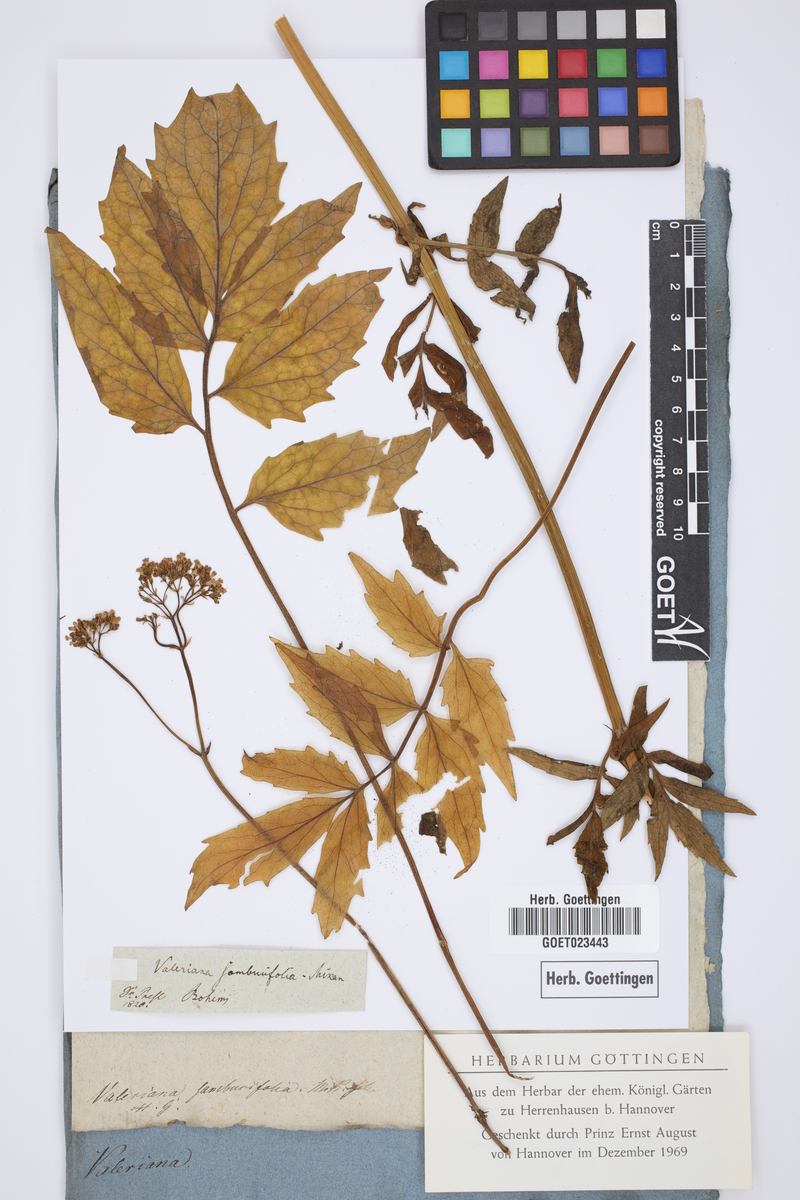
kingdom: Plantae
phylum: Tracheophyta
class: Magnoliopsida
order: Dipsacales
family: Caprifoliaceae
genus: Valeriana
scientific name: Valeriana excelsa
